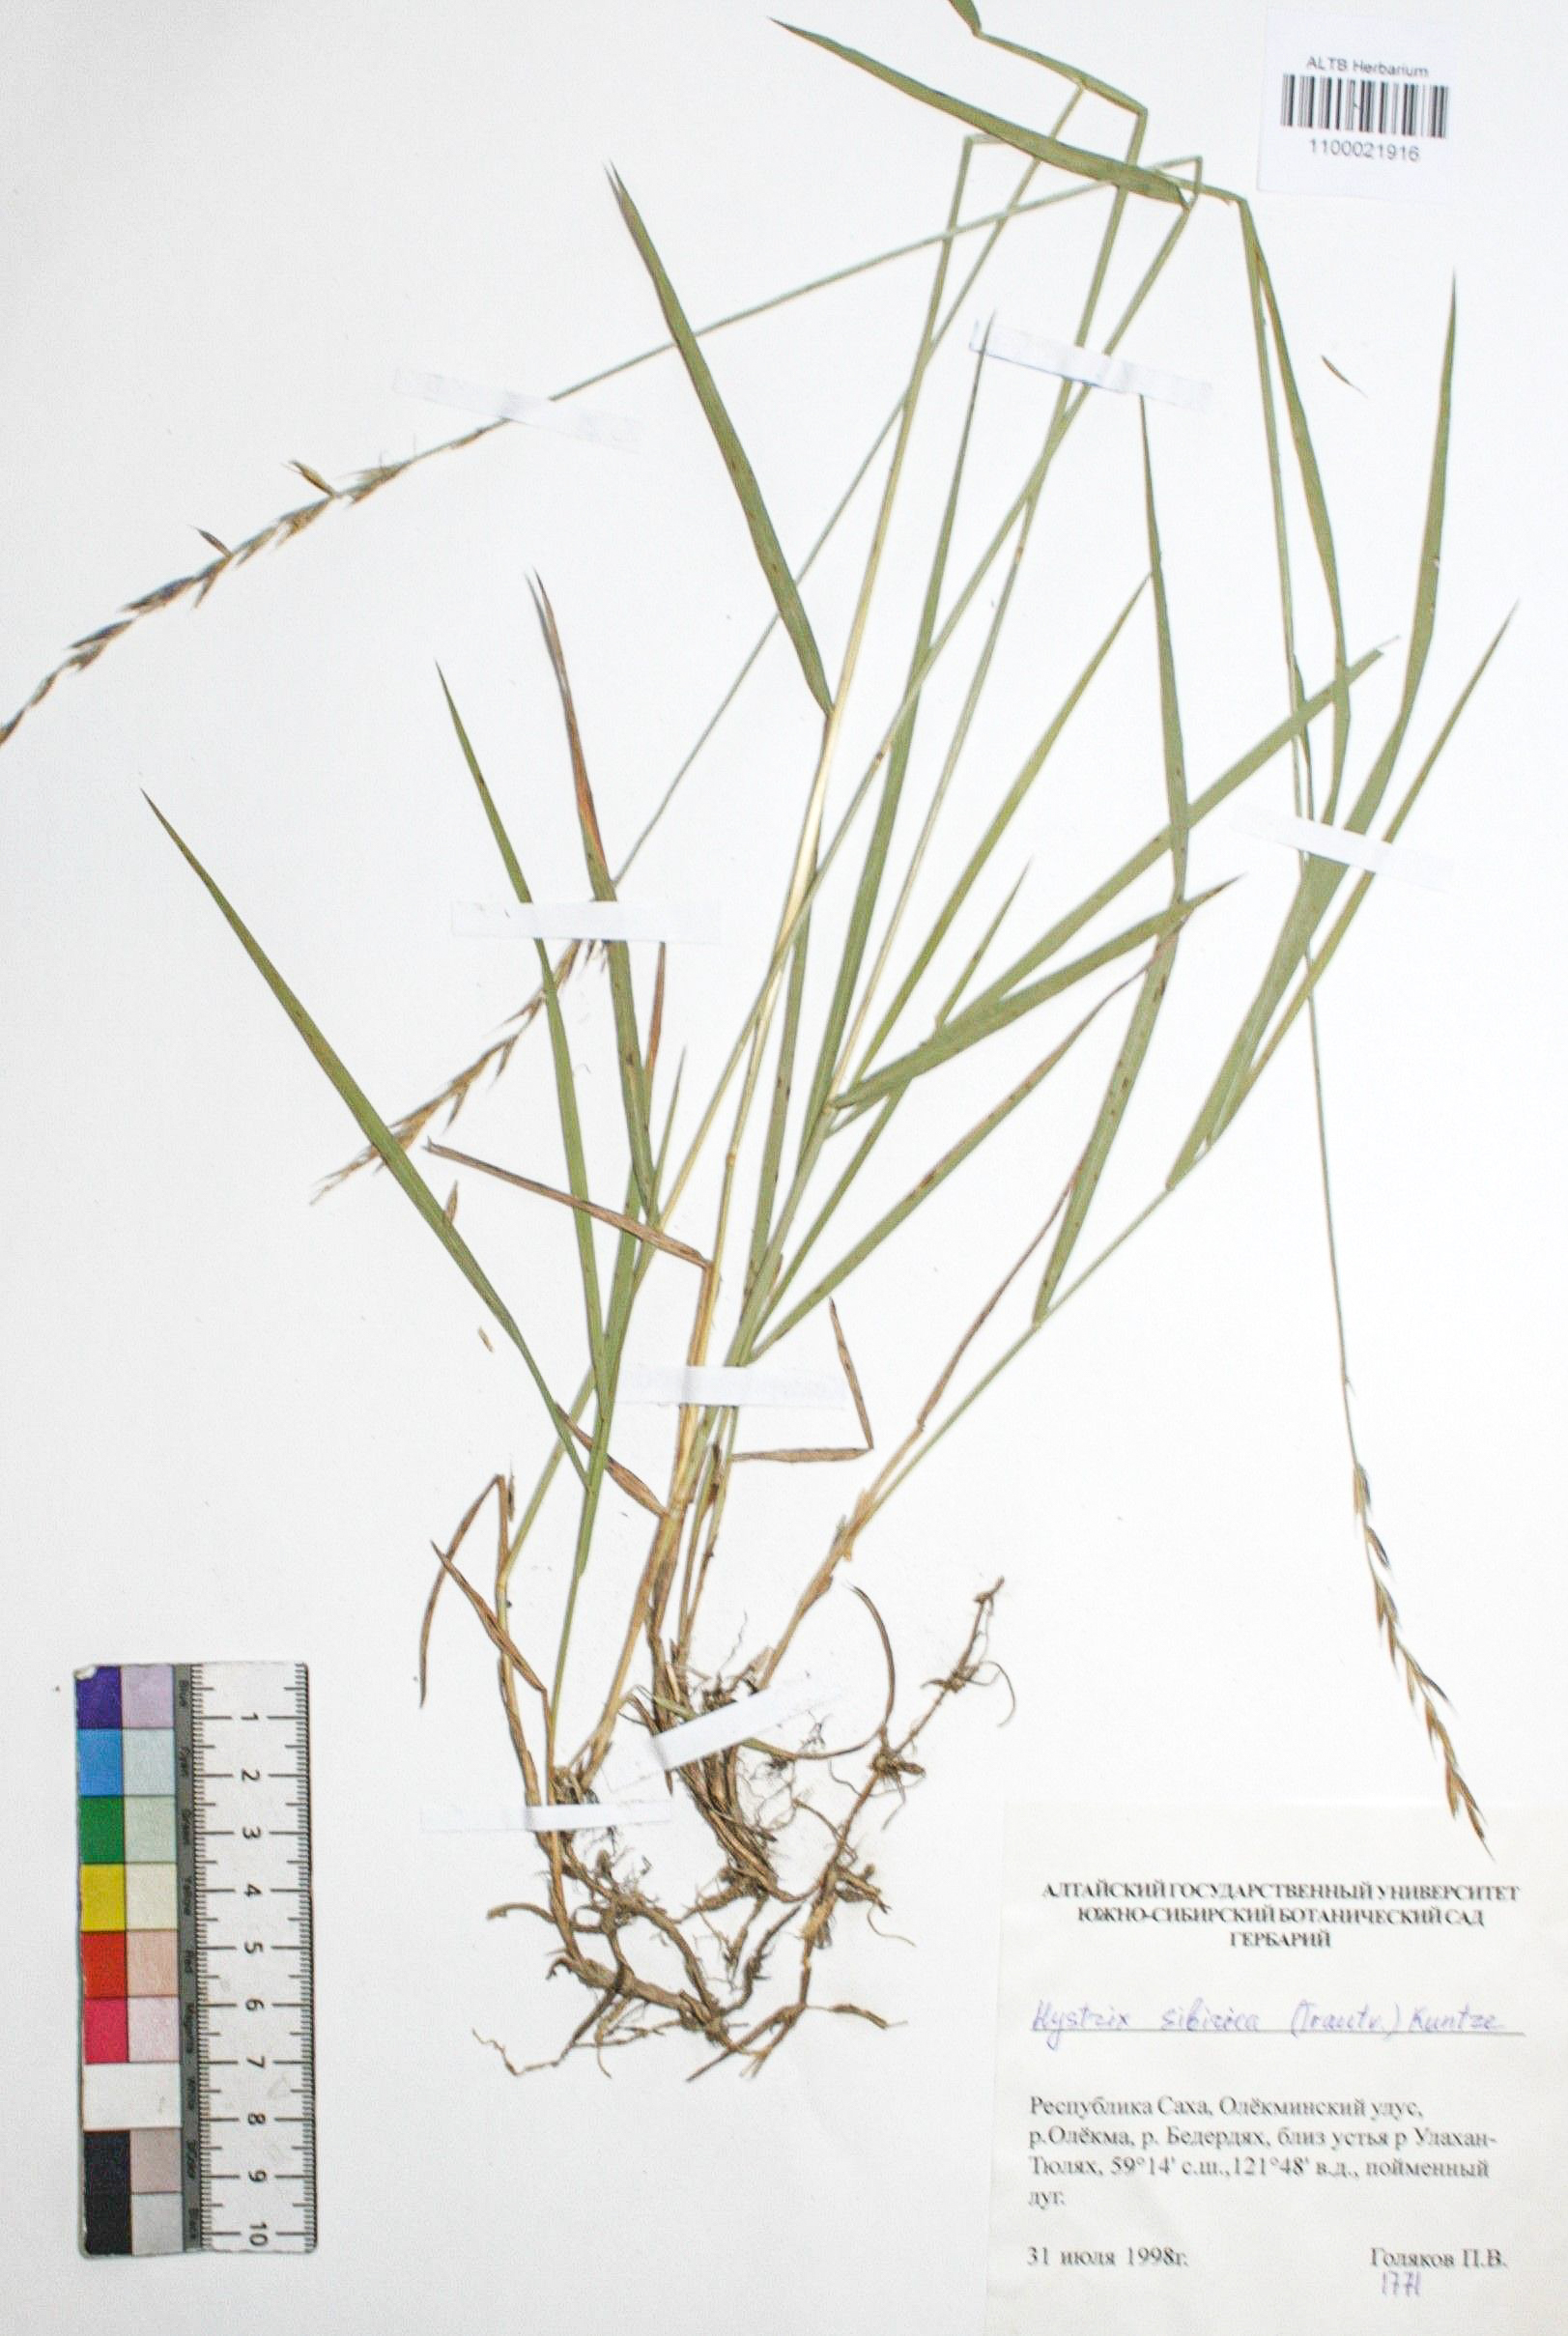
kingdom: Plantae
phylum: Tracheophyta
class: Liliopsida
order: Poales
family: Poaceae
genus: Leymus
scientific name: Leymus sibiricus
